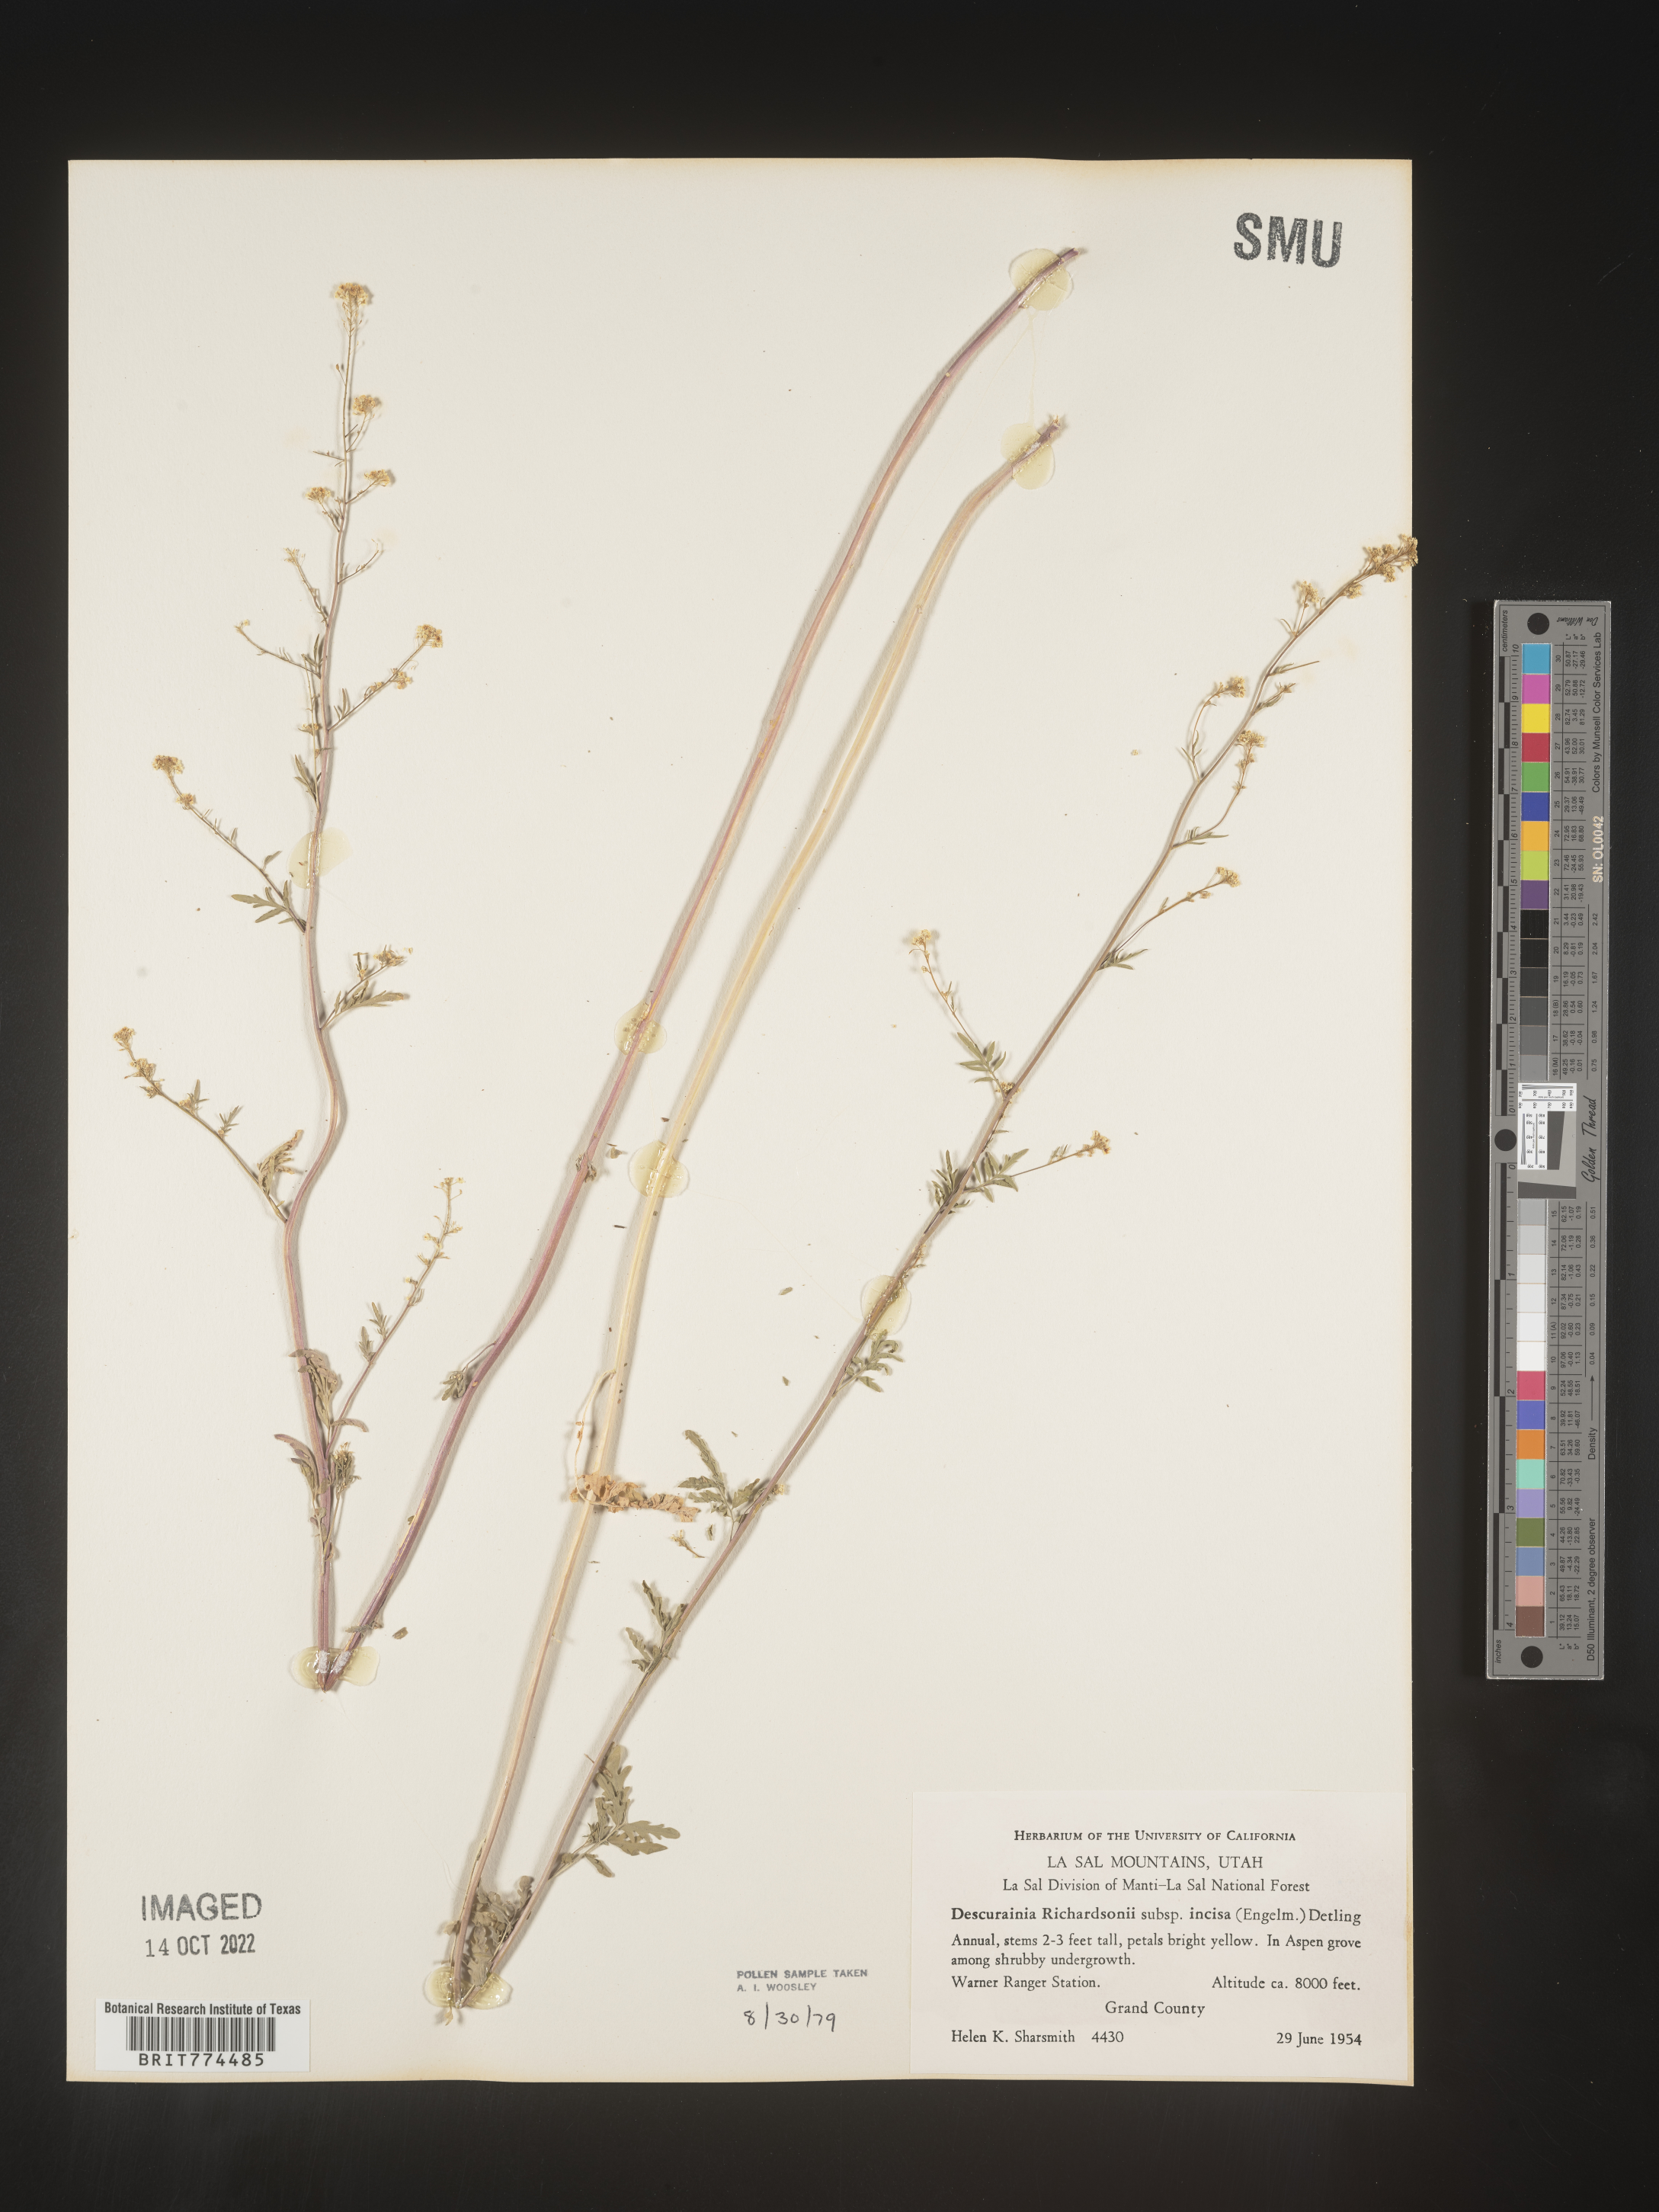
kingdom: Plantae
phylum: Tracheophyta
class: Magnoliopsida
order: Brassicales
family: Brassicaceae
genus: Descurainia
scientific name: Descurainia
